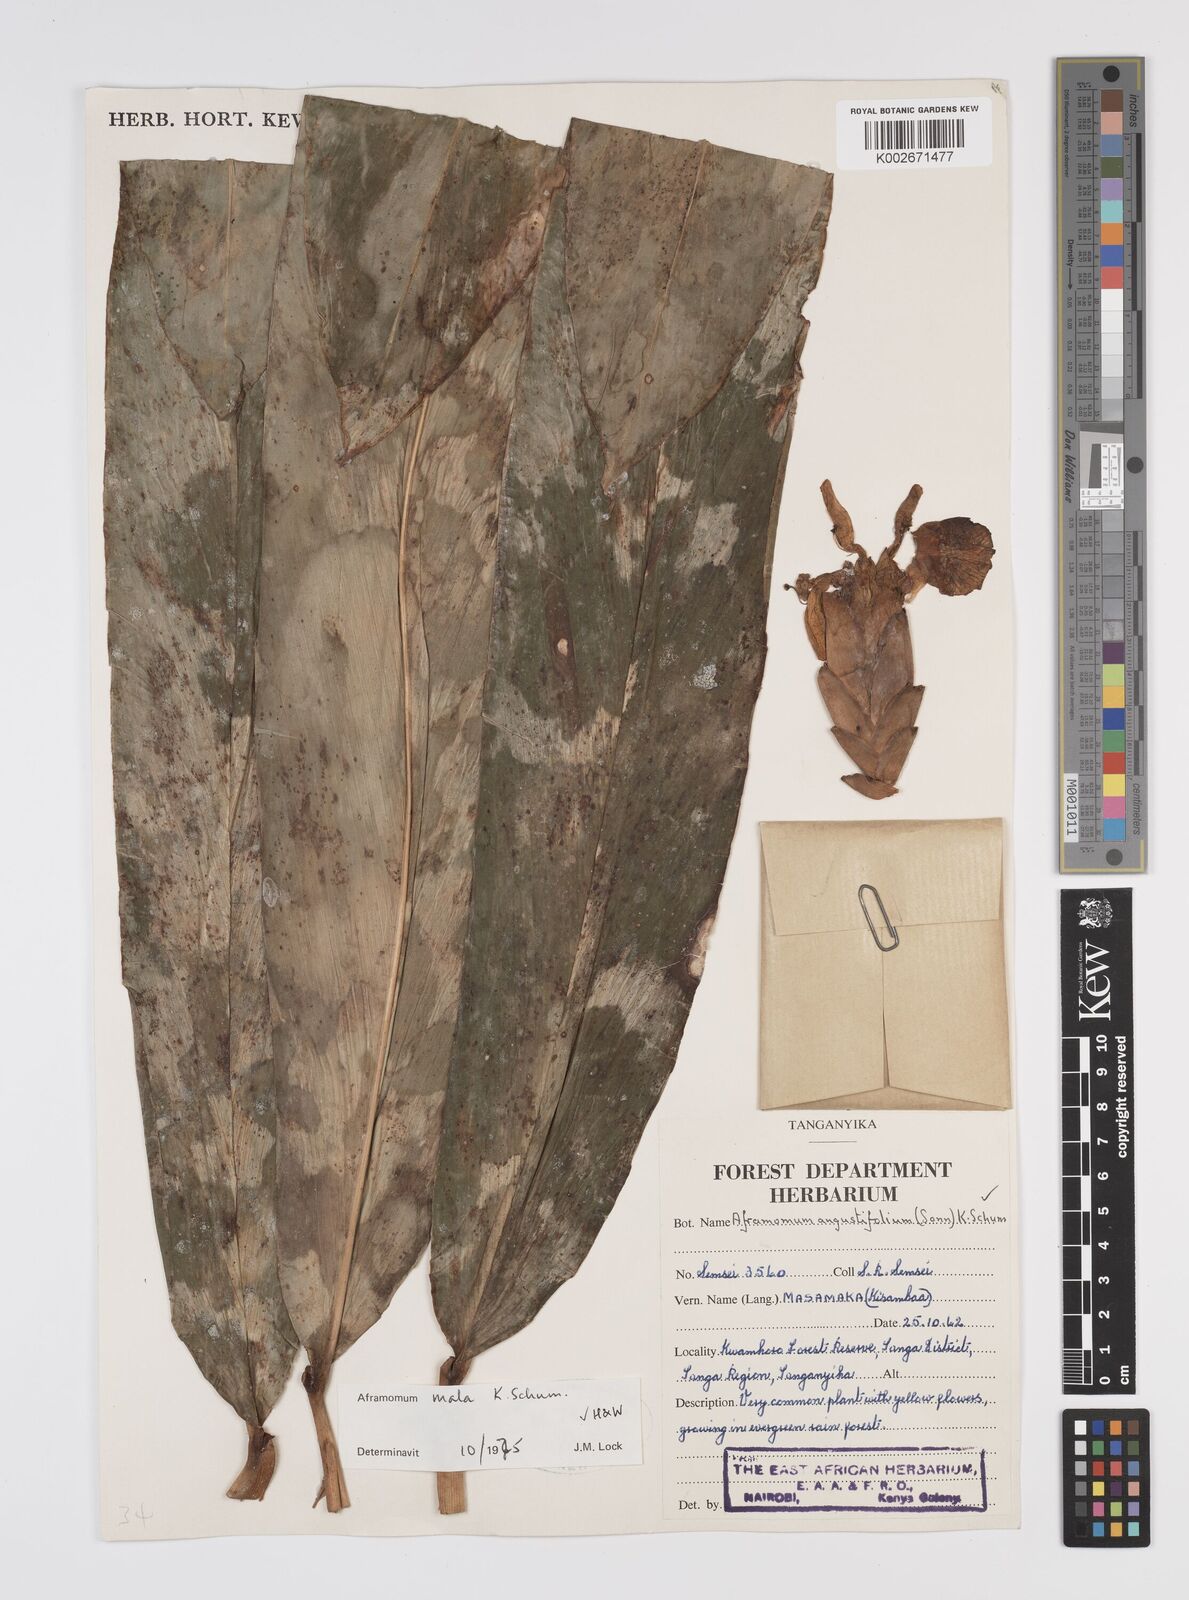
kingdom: Plantae
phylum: Tracheophyta
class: Liliopsida
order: Zingiberales
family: Zingiberaceae
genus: Aframomum
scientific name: Aframomum mala
